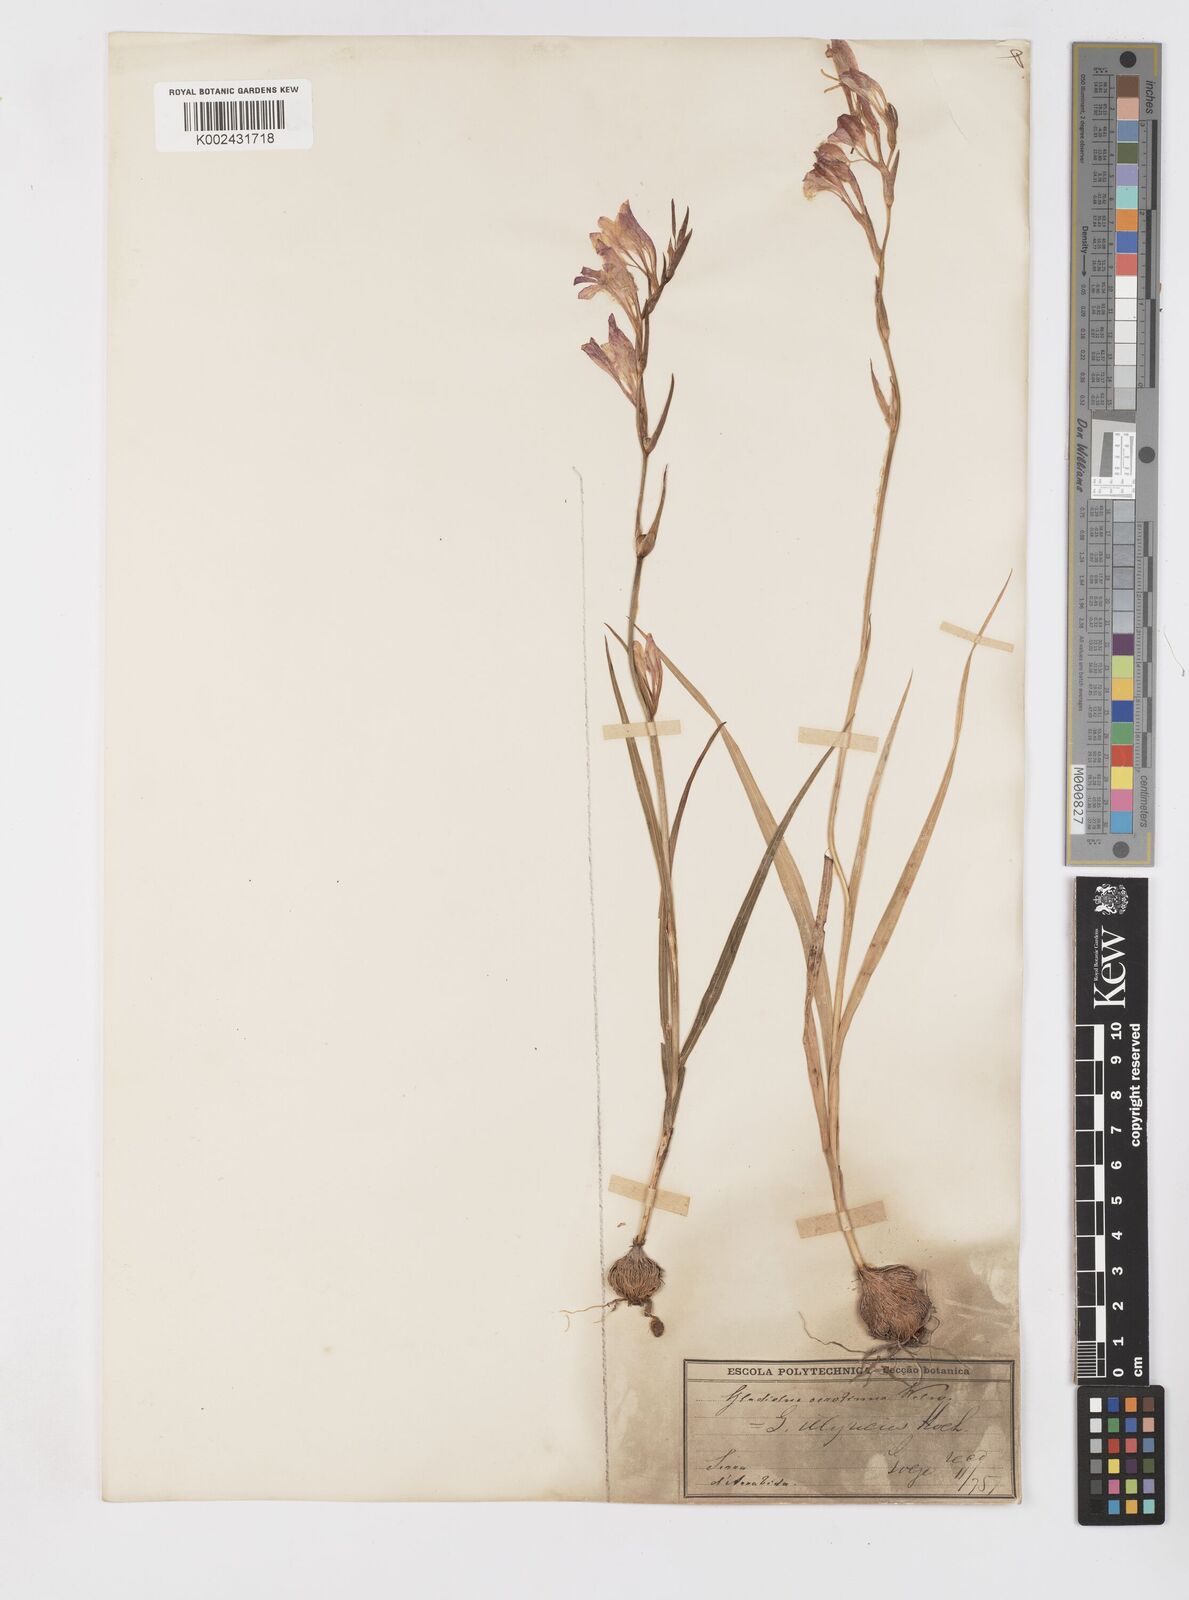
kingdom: Plantae
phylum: Tracheophyta
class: Liliopsida
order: Asparagales
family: Iridaceae
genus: Gladiolus
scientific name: Gladiolus illyricus
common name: Wild gladiolus
